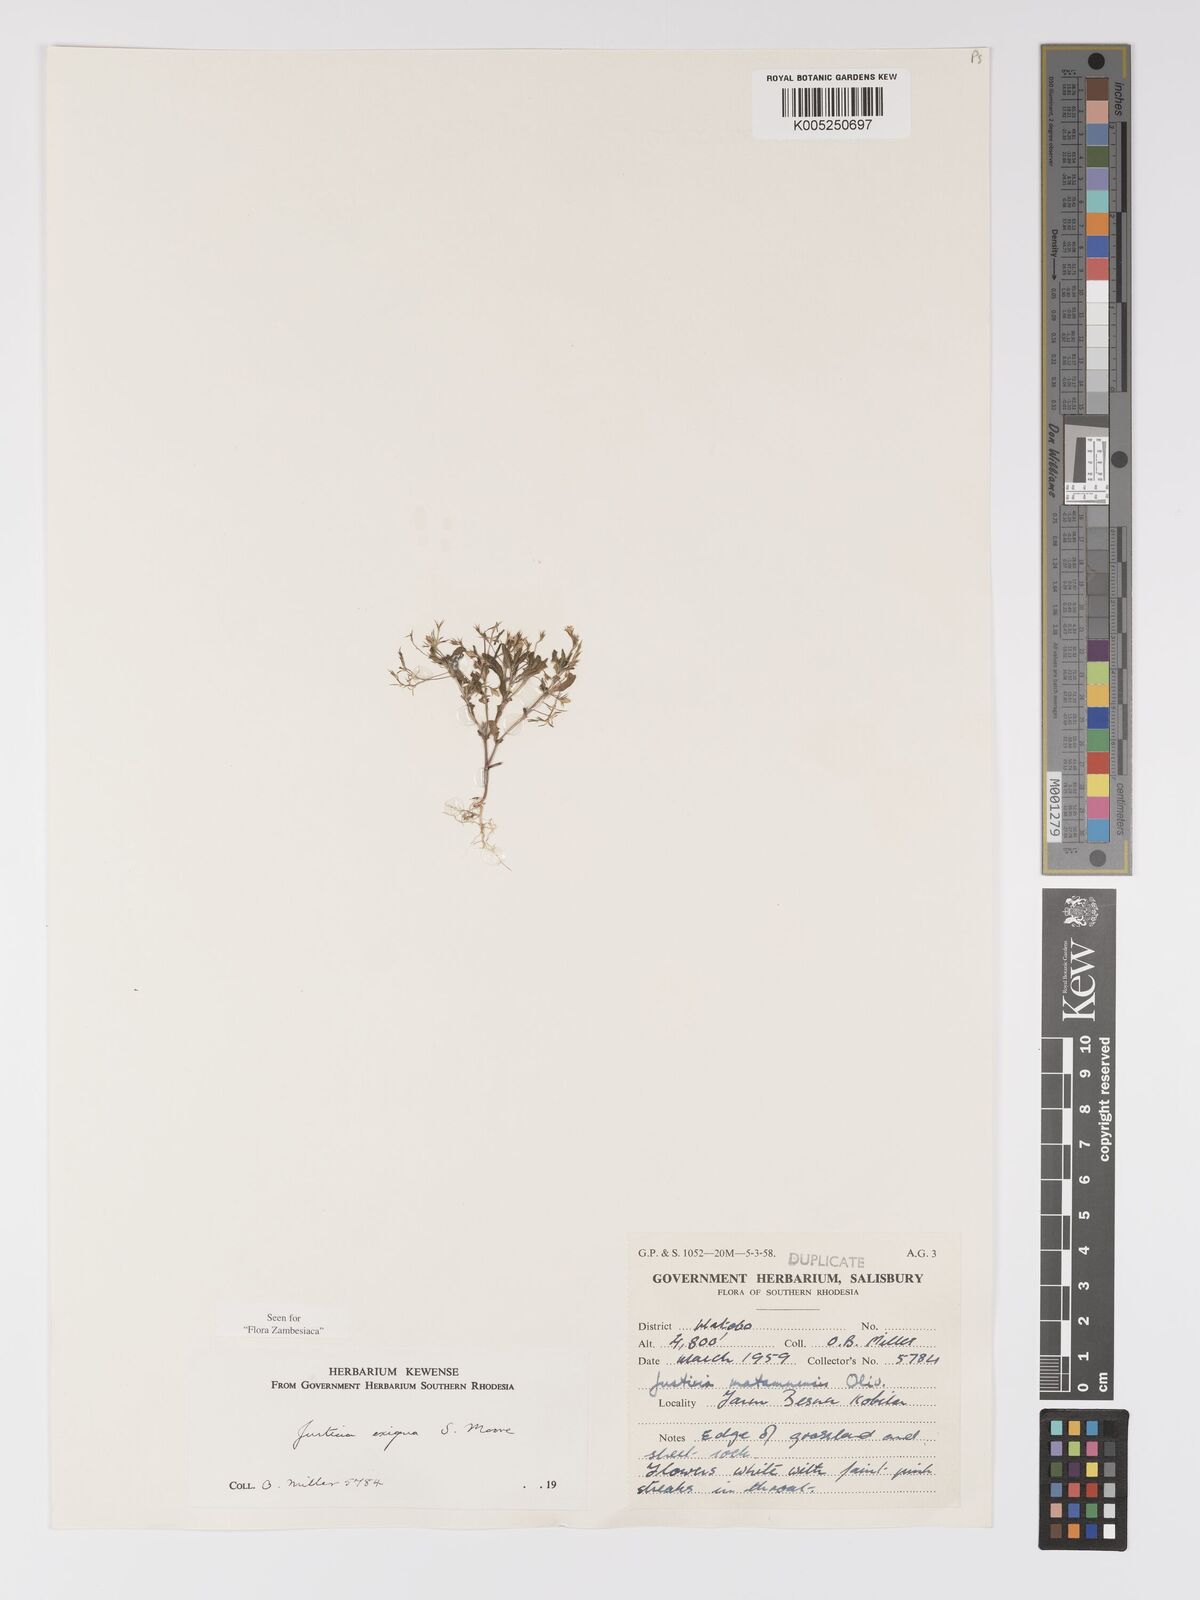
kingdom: Plantae
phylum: Tracheophyta
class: Magnoliopsida
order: Lamiales
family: Acanthaceae
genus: Justicia
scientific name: Justicia exigua
